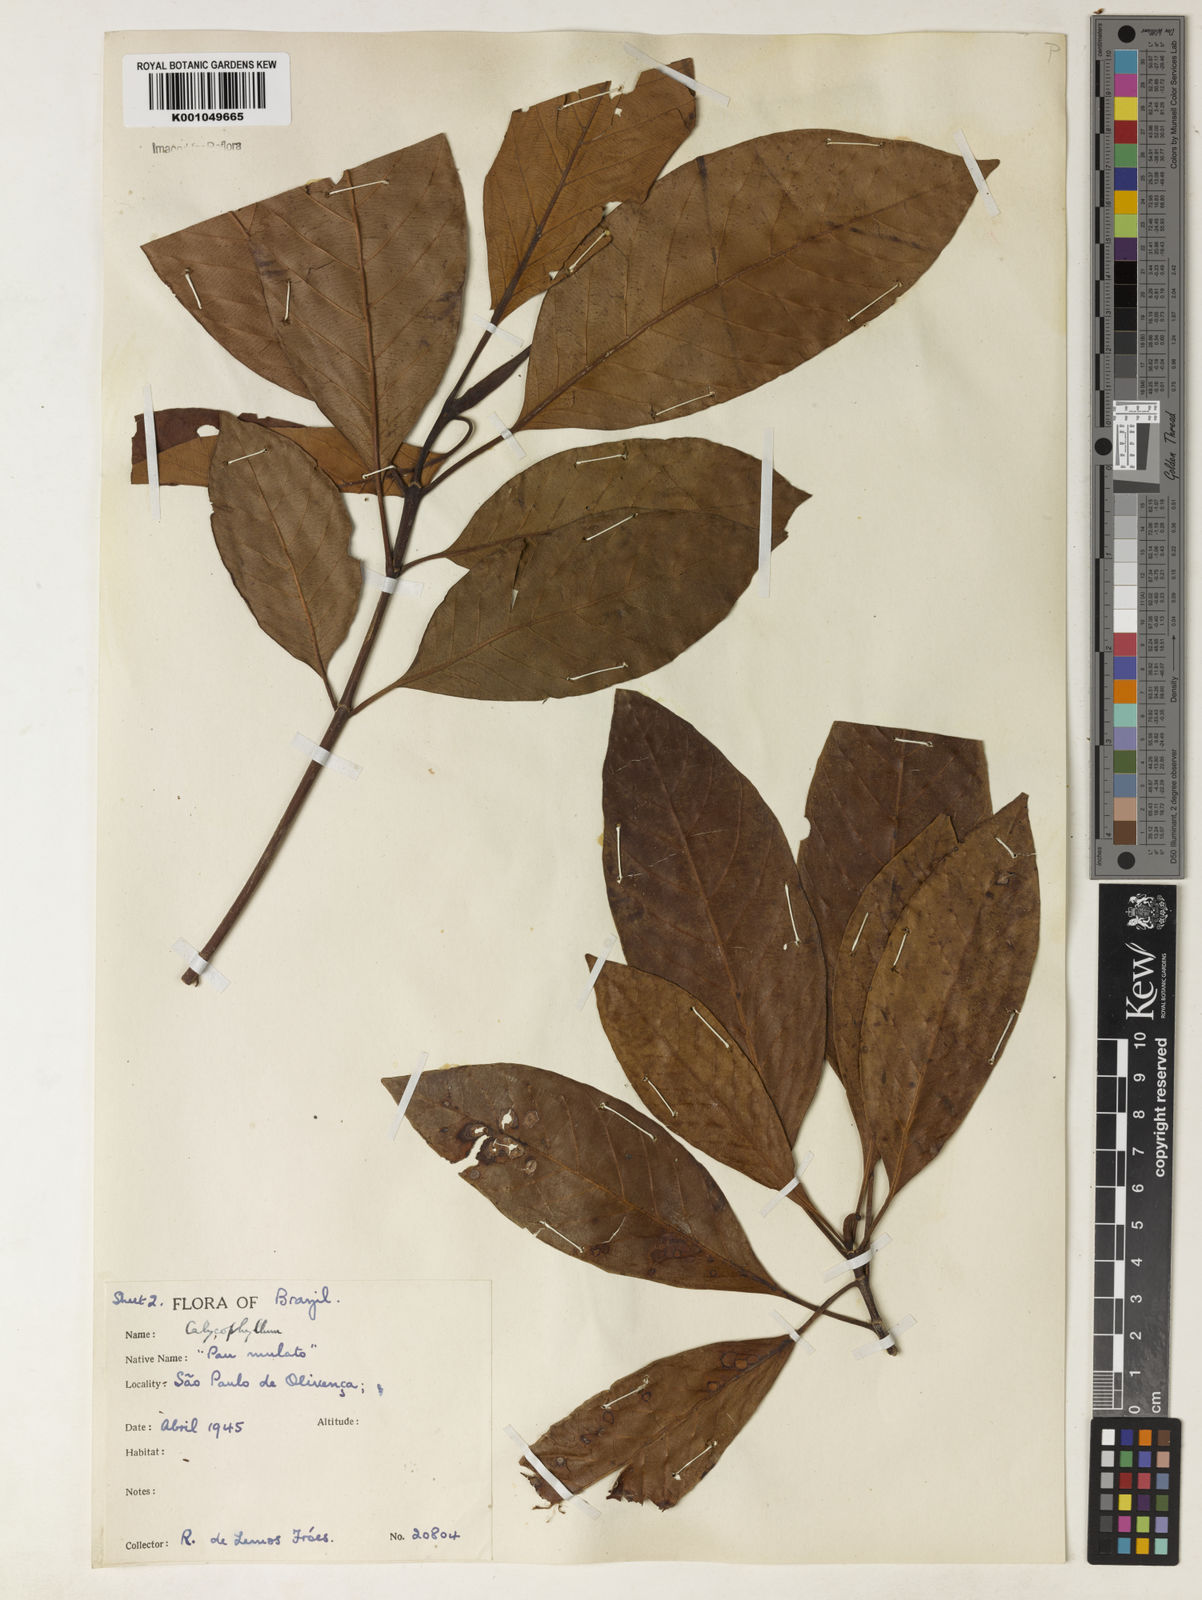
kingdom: Plantae
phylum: Tracheophyta
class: Magnoliopsida
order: Gentianales
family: Rubiaceae
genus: Calycophyllum
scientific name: Calycophyllum
